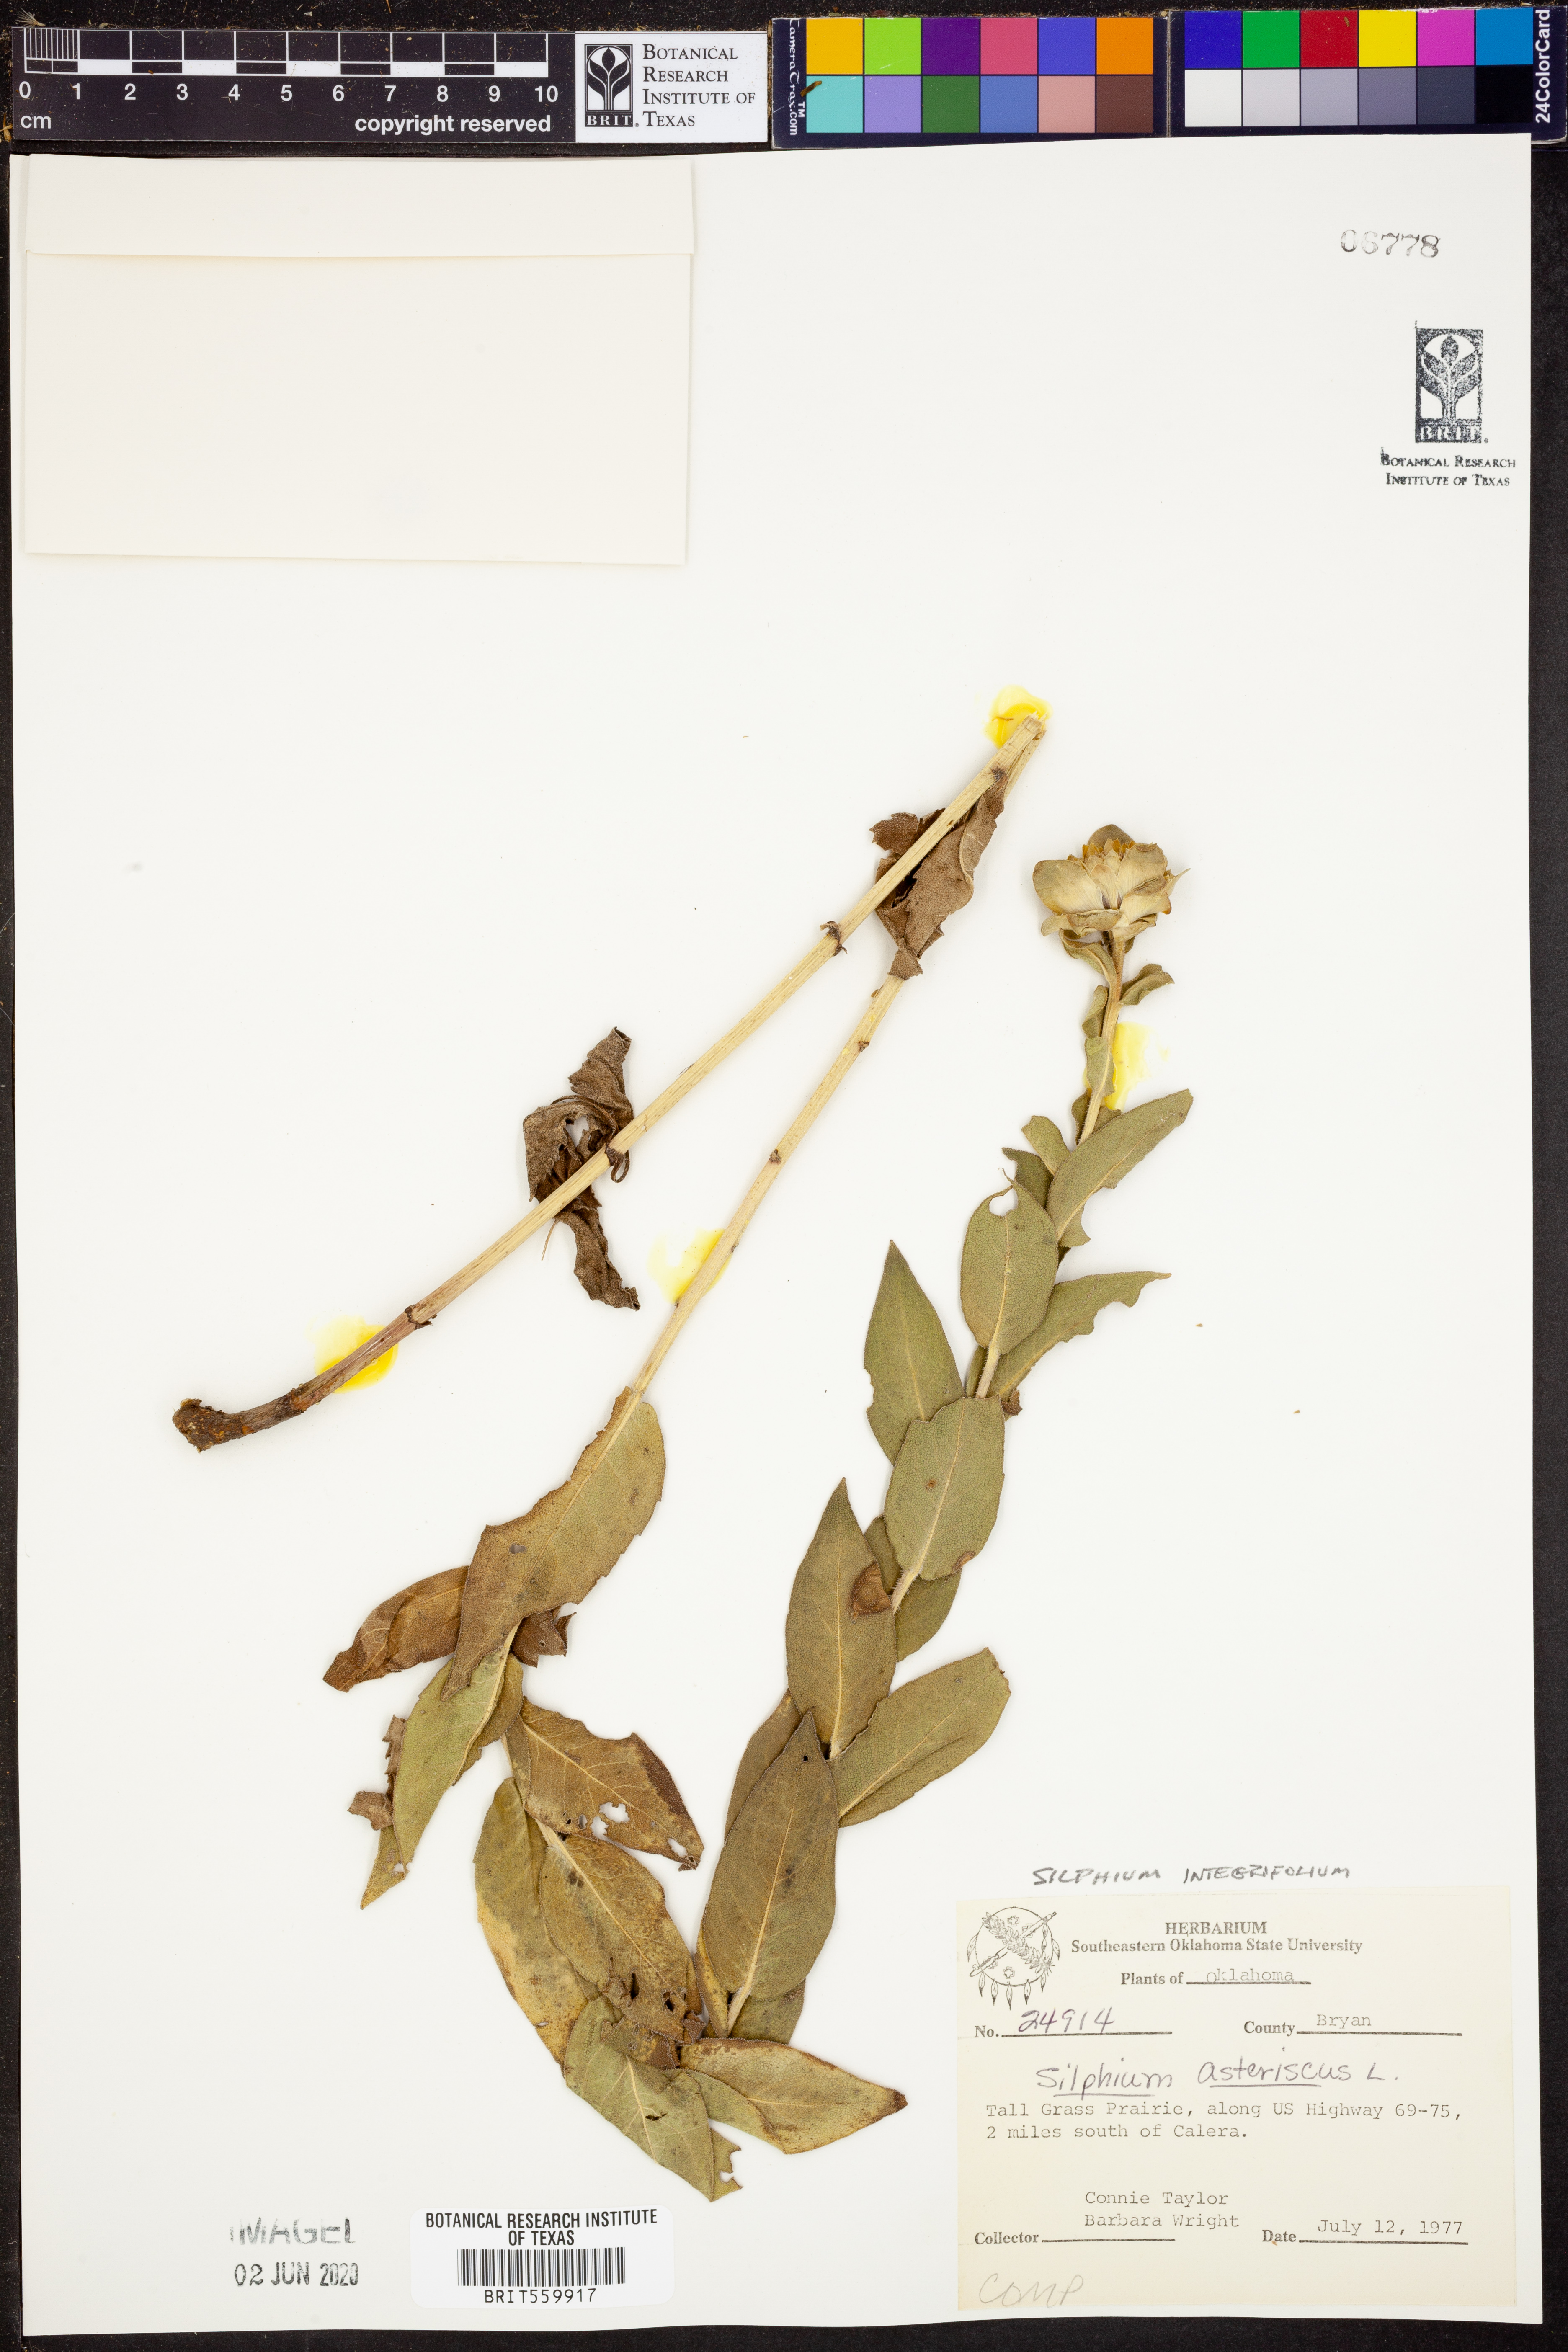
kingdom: Plantae
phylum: Tracheophyta
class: Magnoliopsida
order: Asterales
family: Asteraceae
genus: Silphium
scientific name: Silphium integrifolium
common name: Whole-leaf rosinweed
